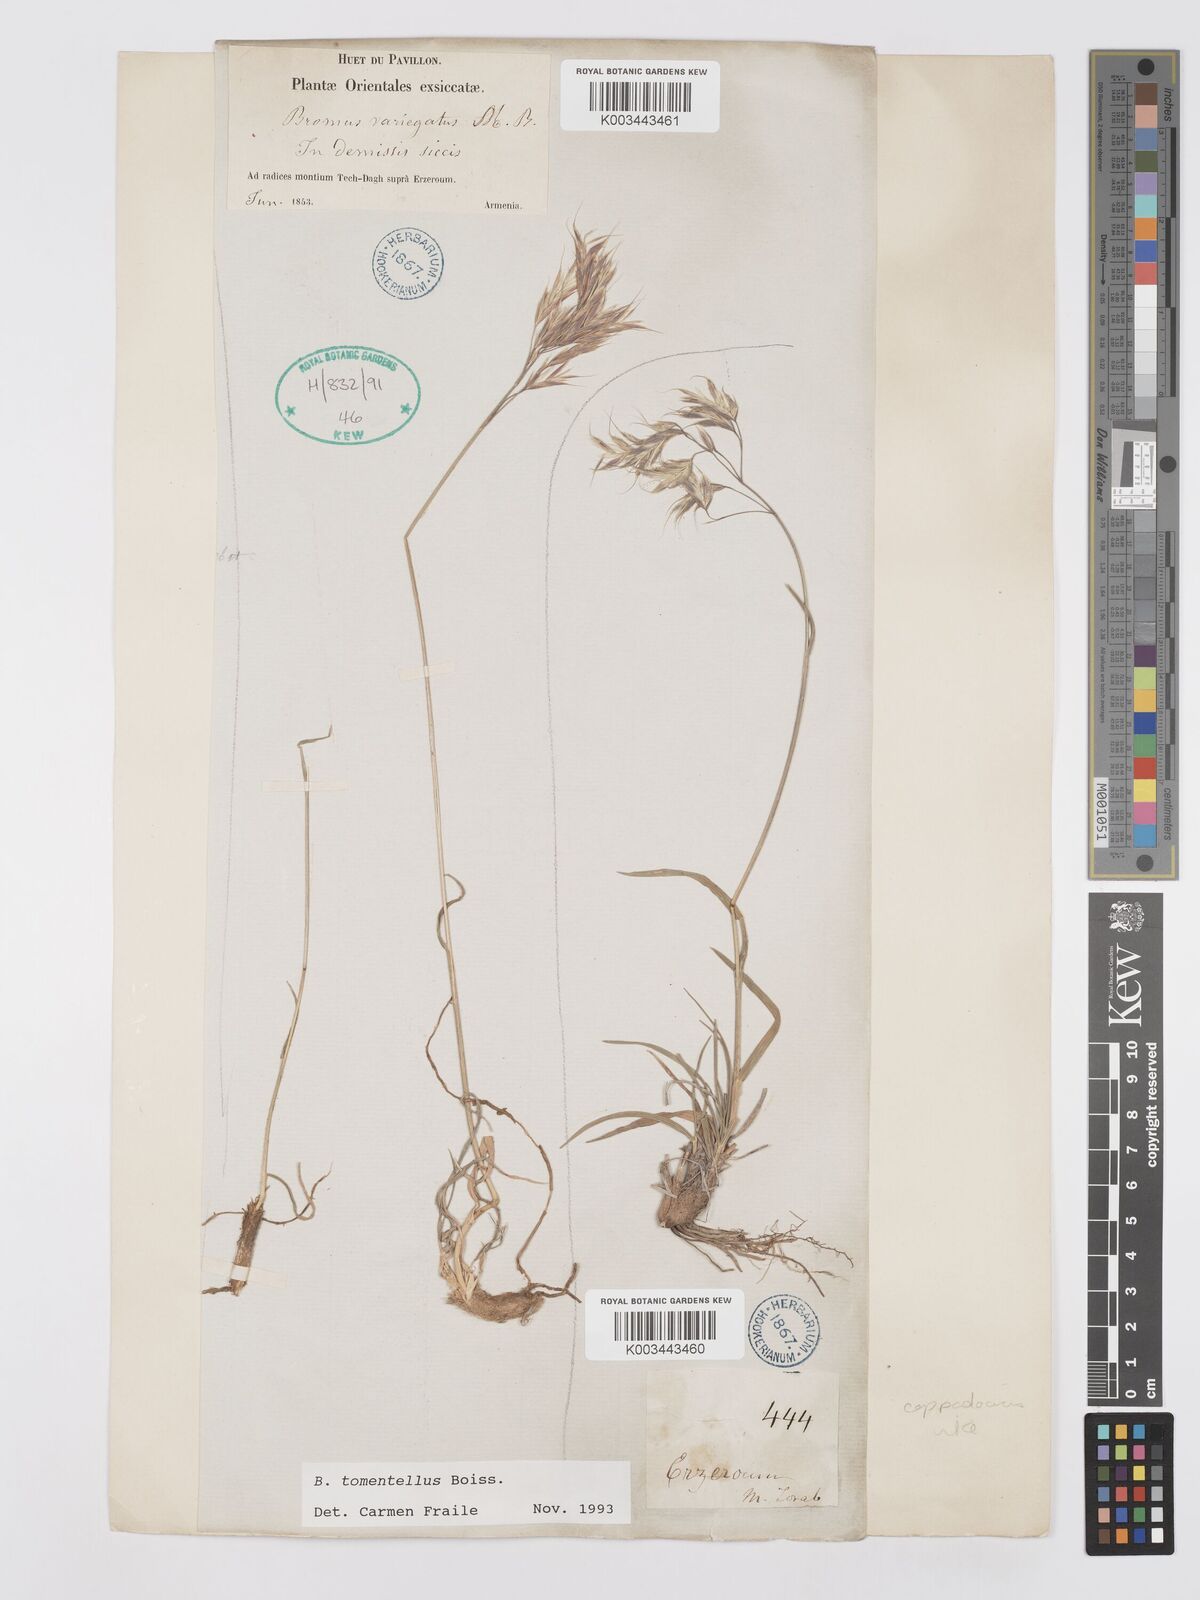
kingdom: Plantae
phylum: Tracheophyta
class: Liliopsida
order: Poales
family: Poaceae
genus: Bromus
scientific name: Bromus tomentellus
